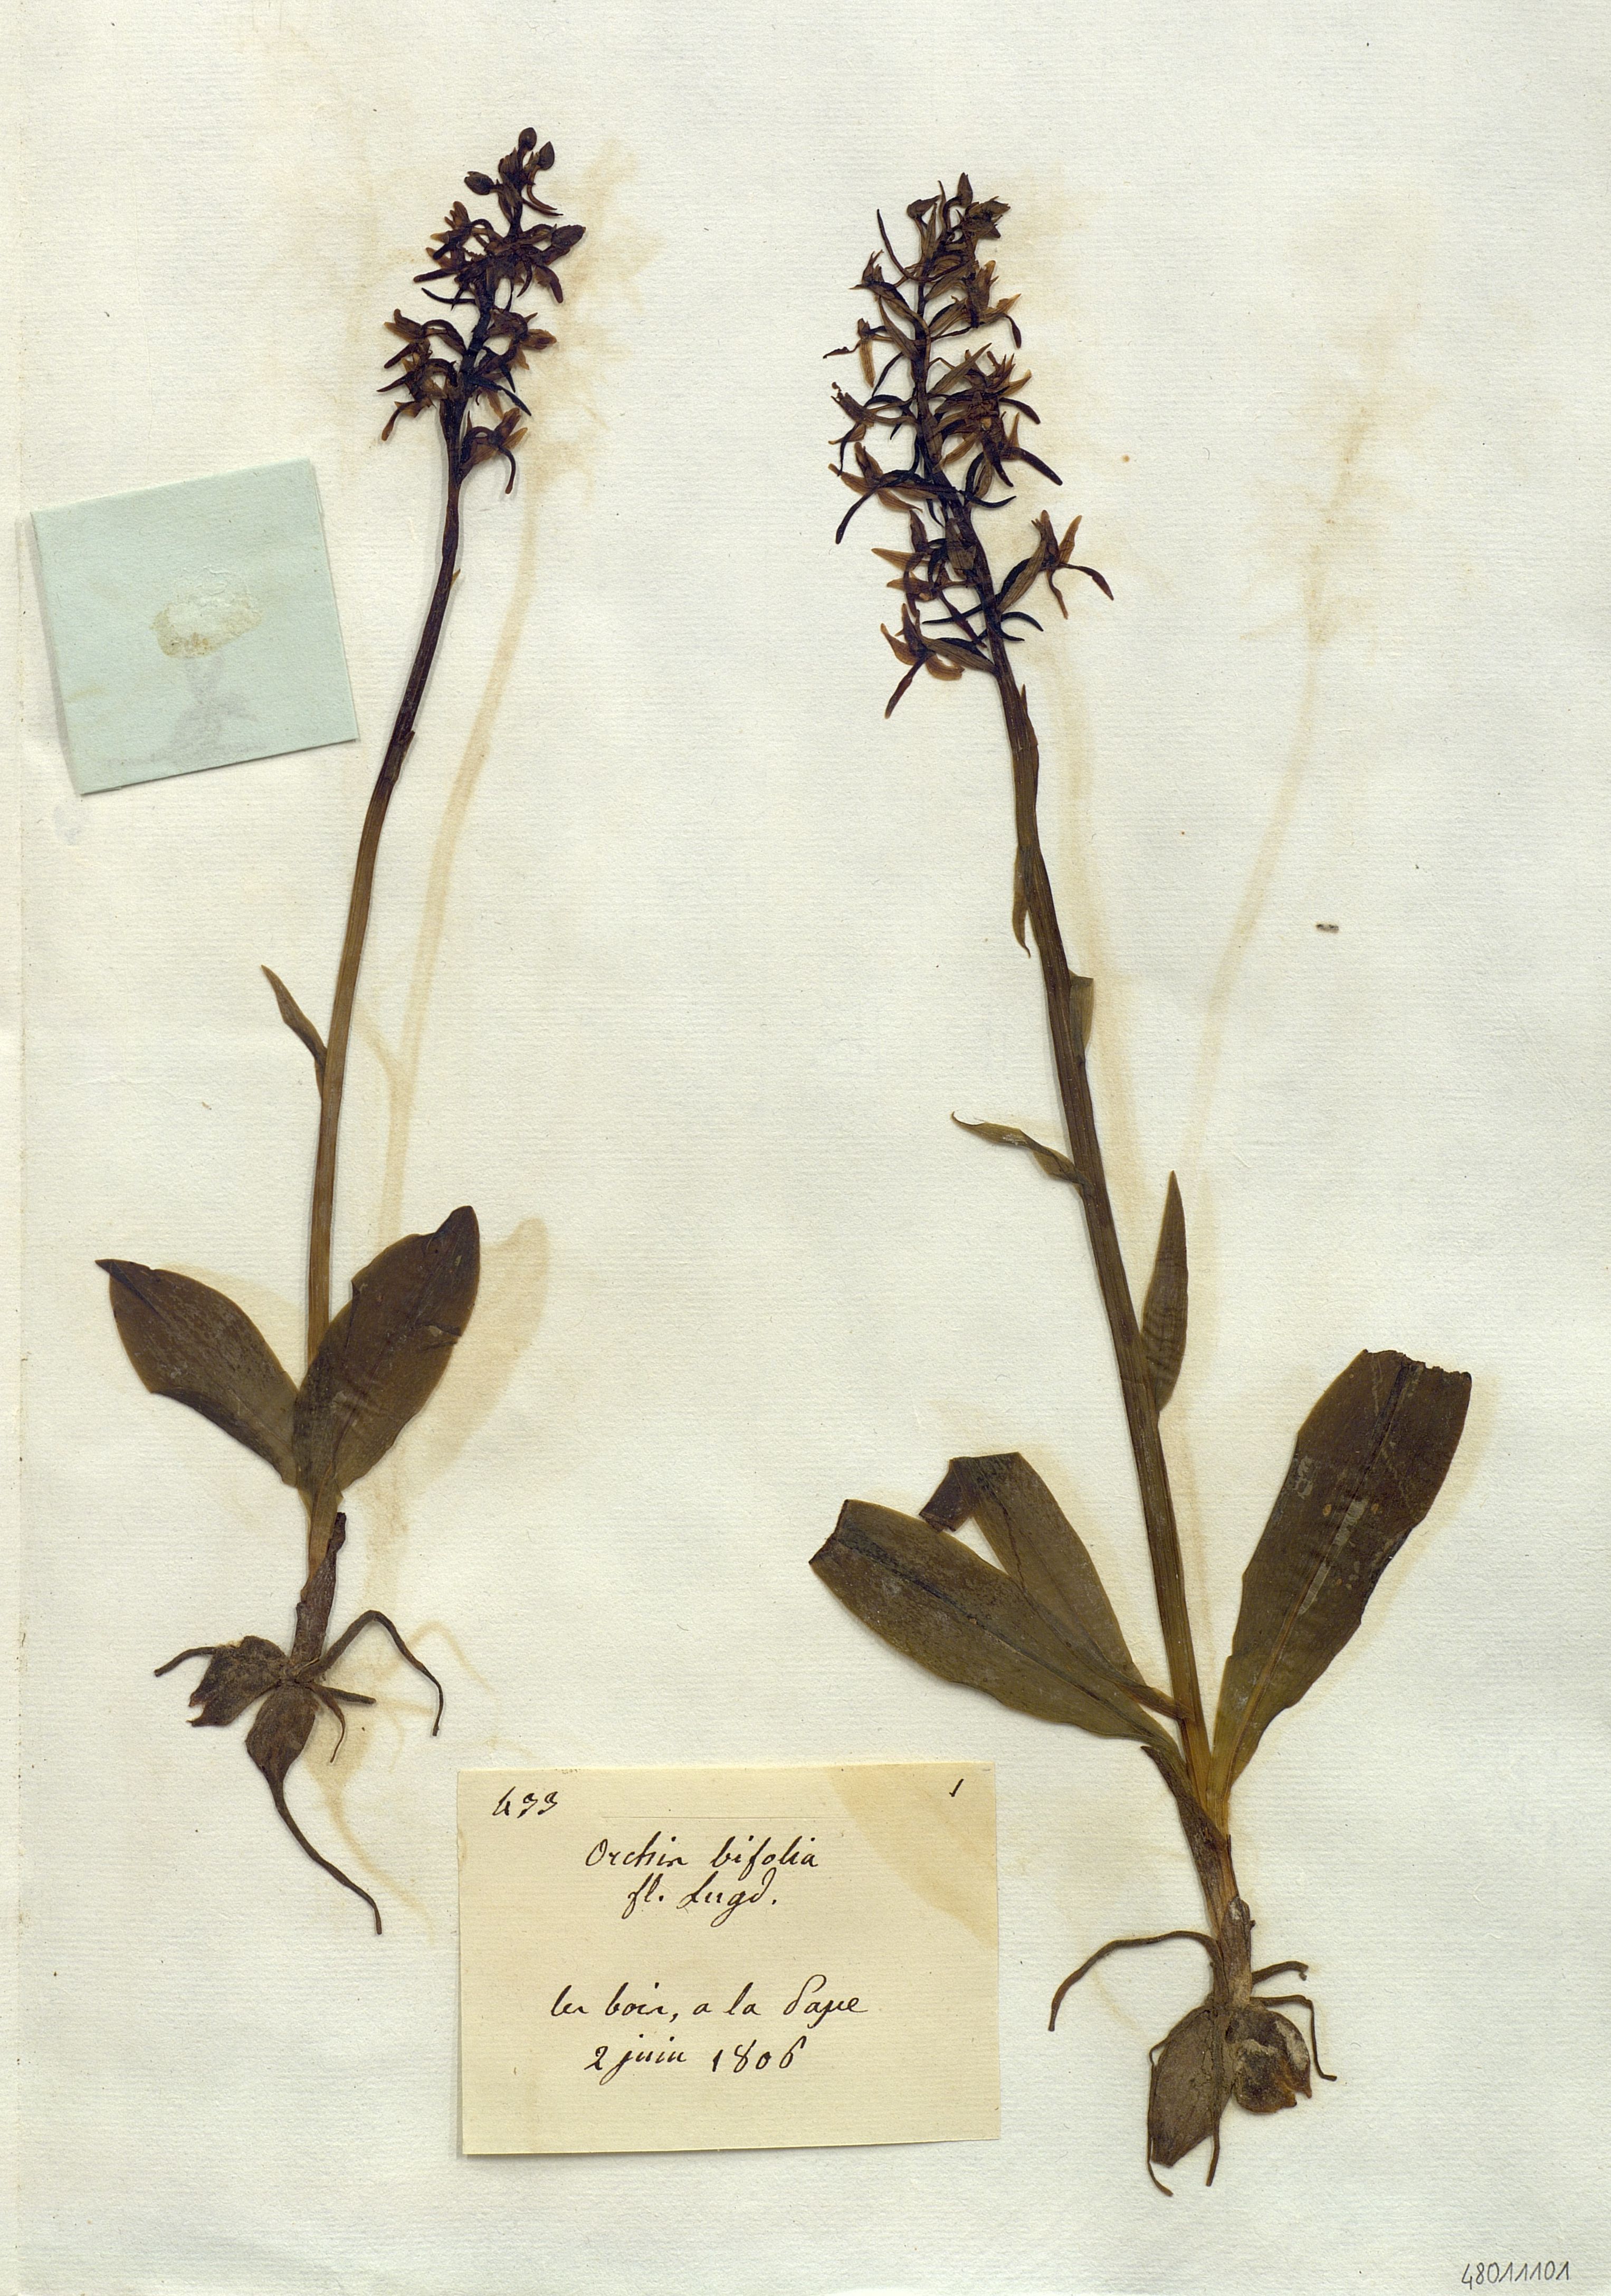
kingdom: Plantae
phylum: Tracheophyta
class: Liliopsida
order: Asparagales
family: Orchidaceae
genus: Platanthera
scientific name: Platanthera bifolia
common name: Lesser butterfly-orchid
